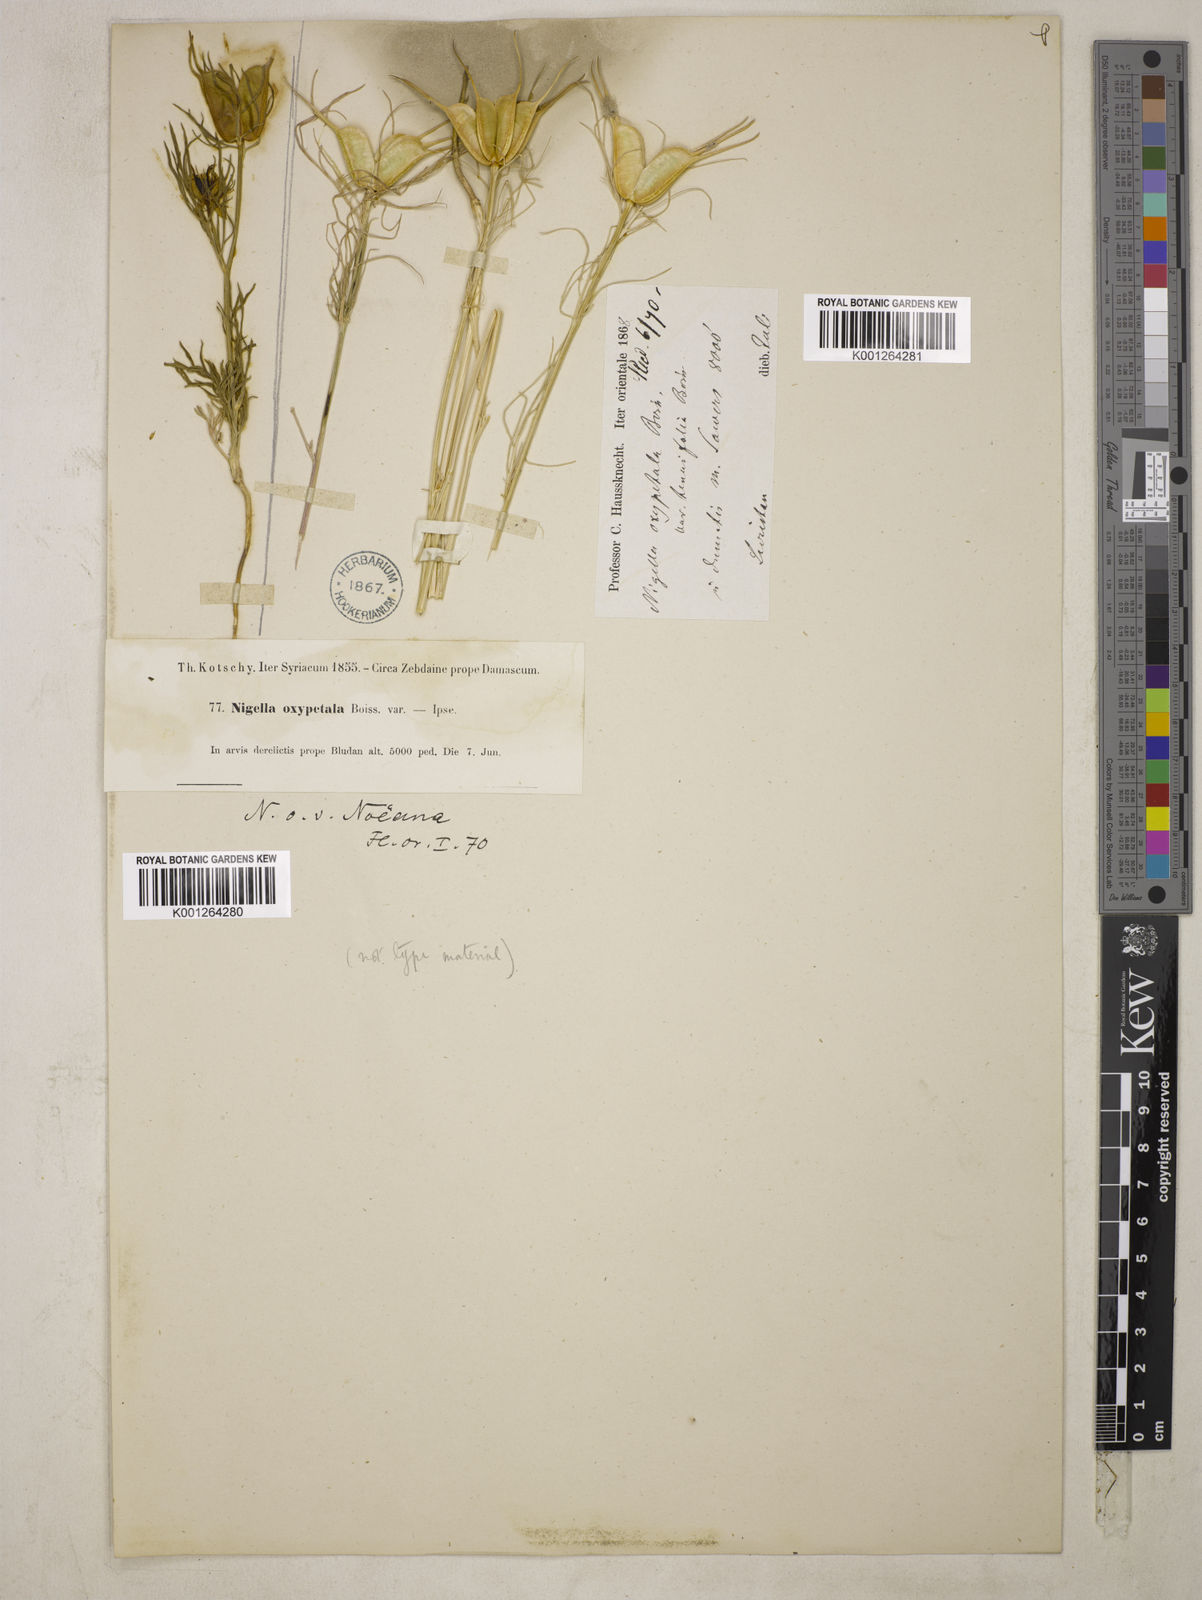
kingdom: Plantae
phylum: Tracheophyta
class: Magnoliopsida
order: Ranunculales
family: Ranunculaceae
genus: Nigella
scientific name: Nigella oxypetala
